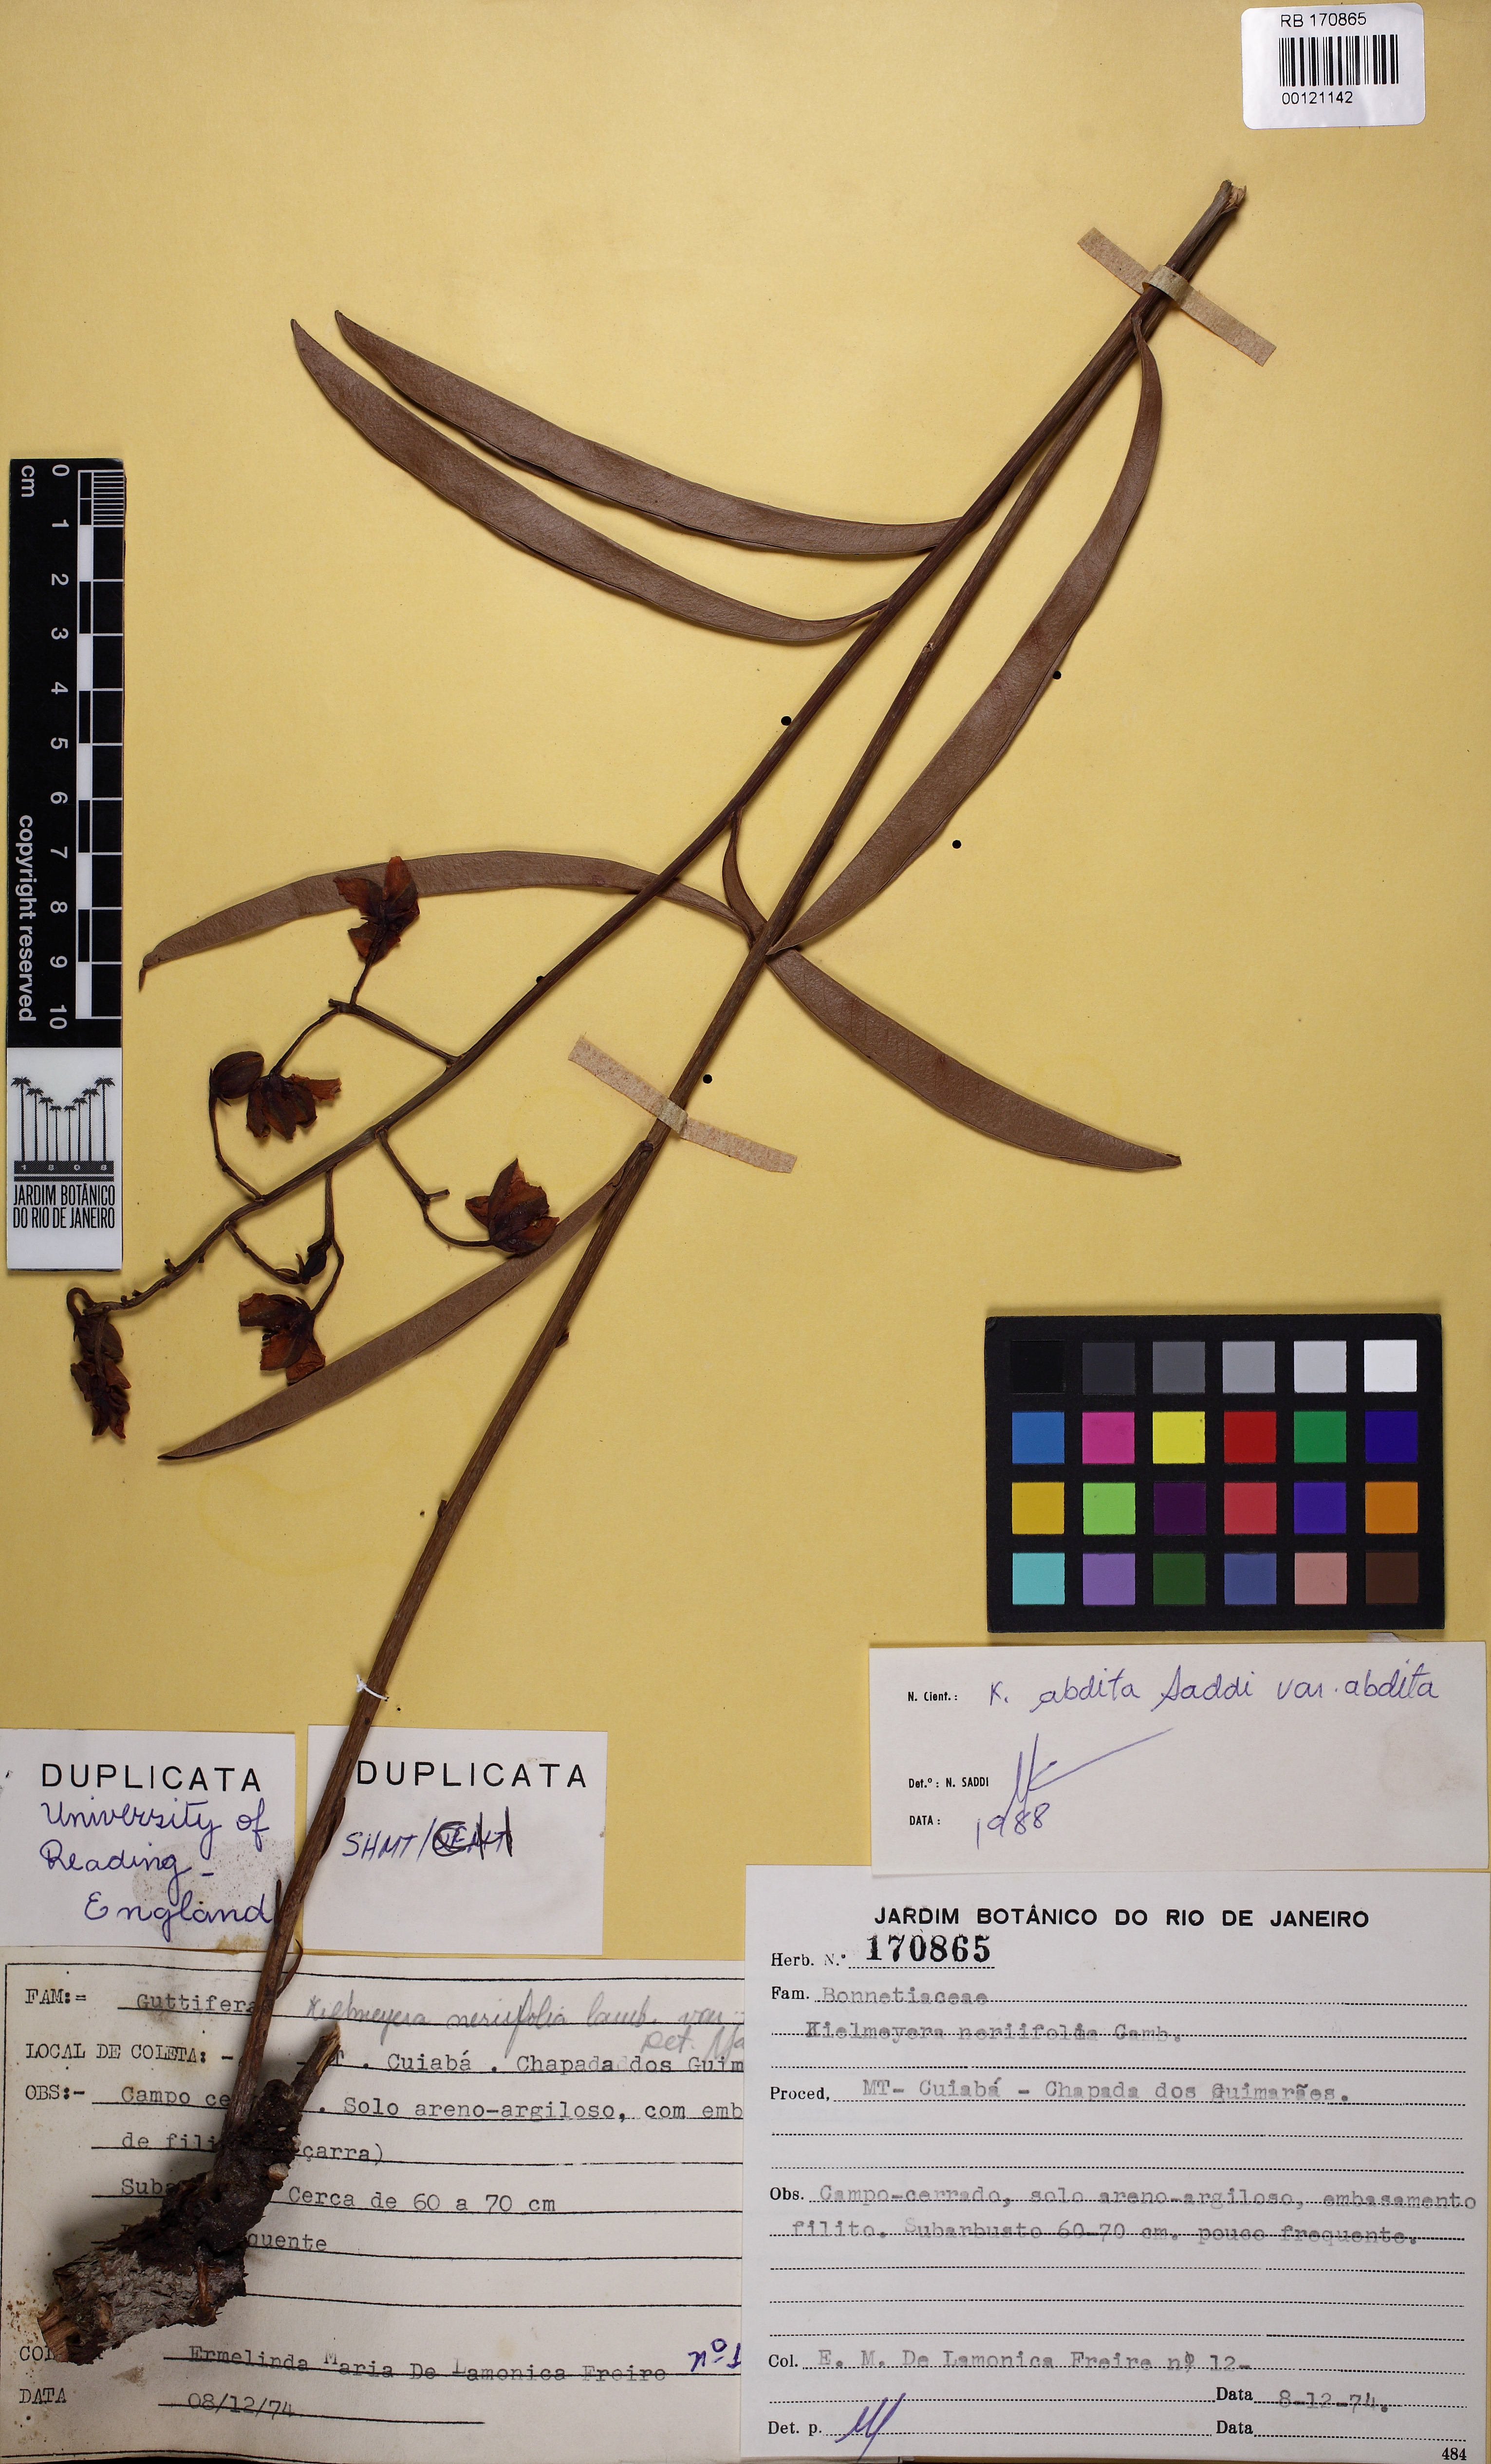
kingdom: Plantae
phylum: Tracheophyta
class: Magnoliopsida
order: Malpighiales
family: Calophyllaceae
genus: Kielmeyera
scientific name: Kielmeyera abdita
